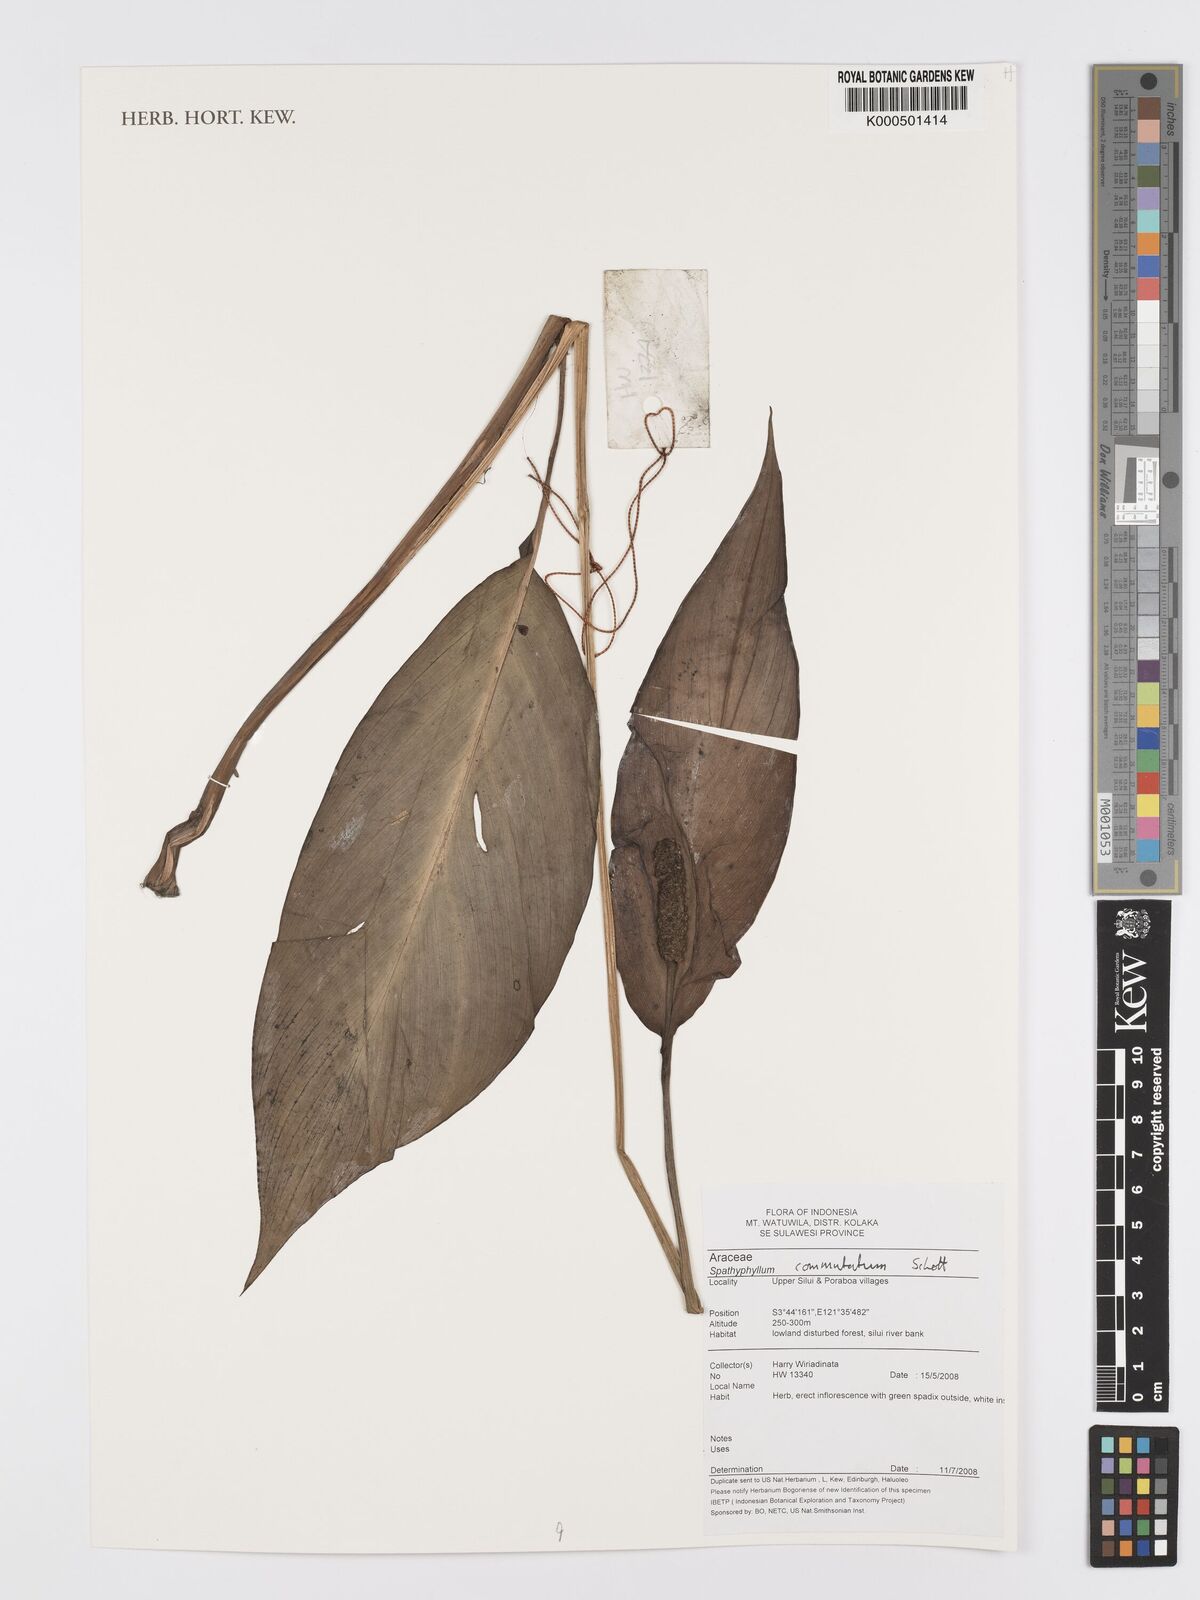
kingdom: Plantae
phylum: Tracheophyta
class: Liliopsida
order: Alismatales
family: Araceae
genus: Spathiphyllum
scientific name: Spathiphyllum commutatum
